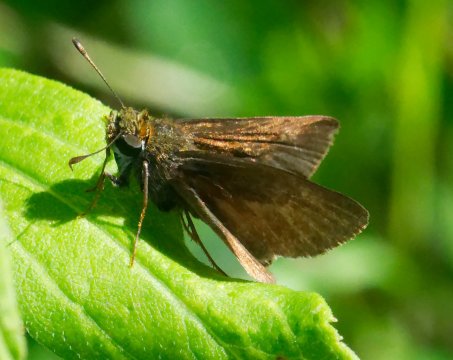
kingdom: Animalia
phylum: Arthropoda
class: Insecta
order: Lepidoptera
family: Hesperiidae
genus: Euphyes
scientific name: Euphyes vestris
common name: Dun Skipper
